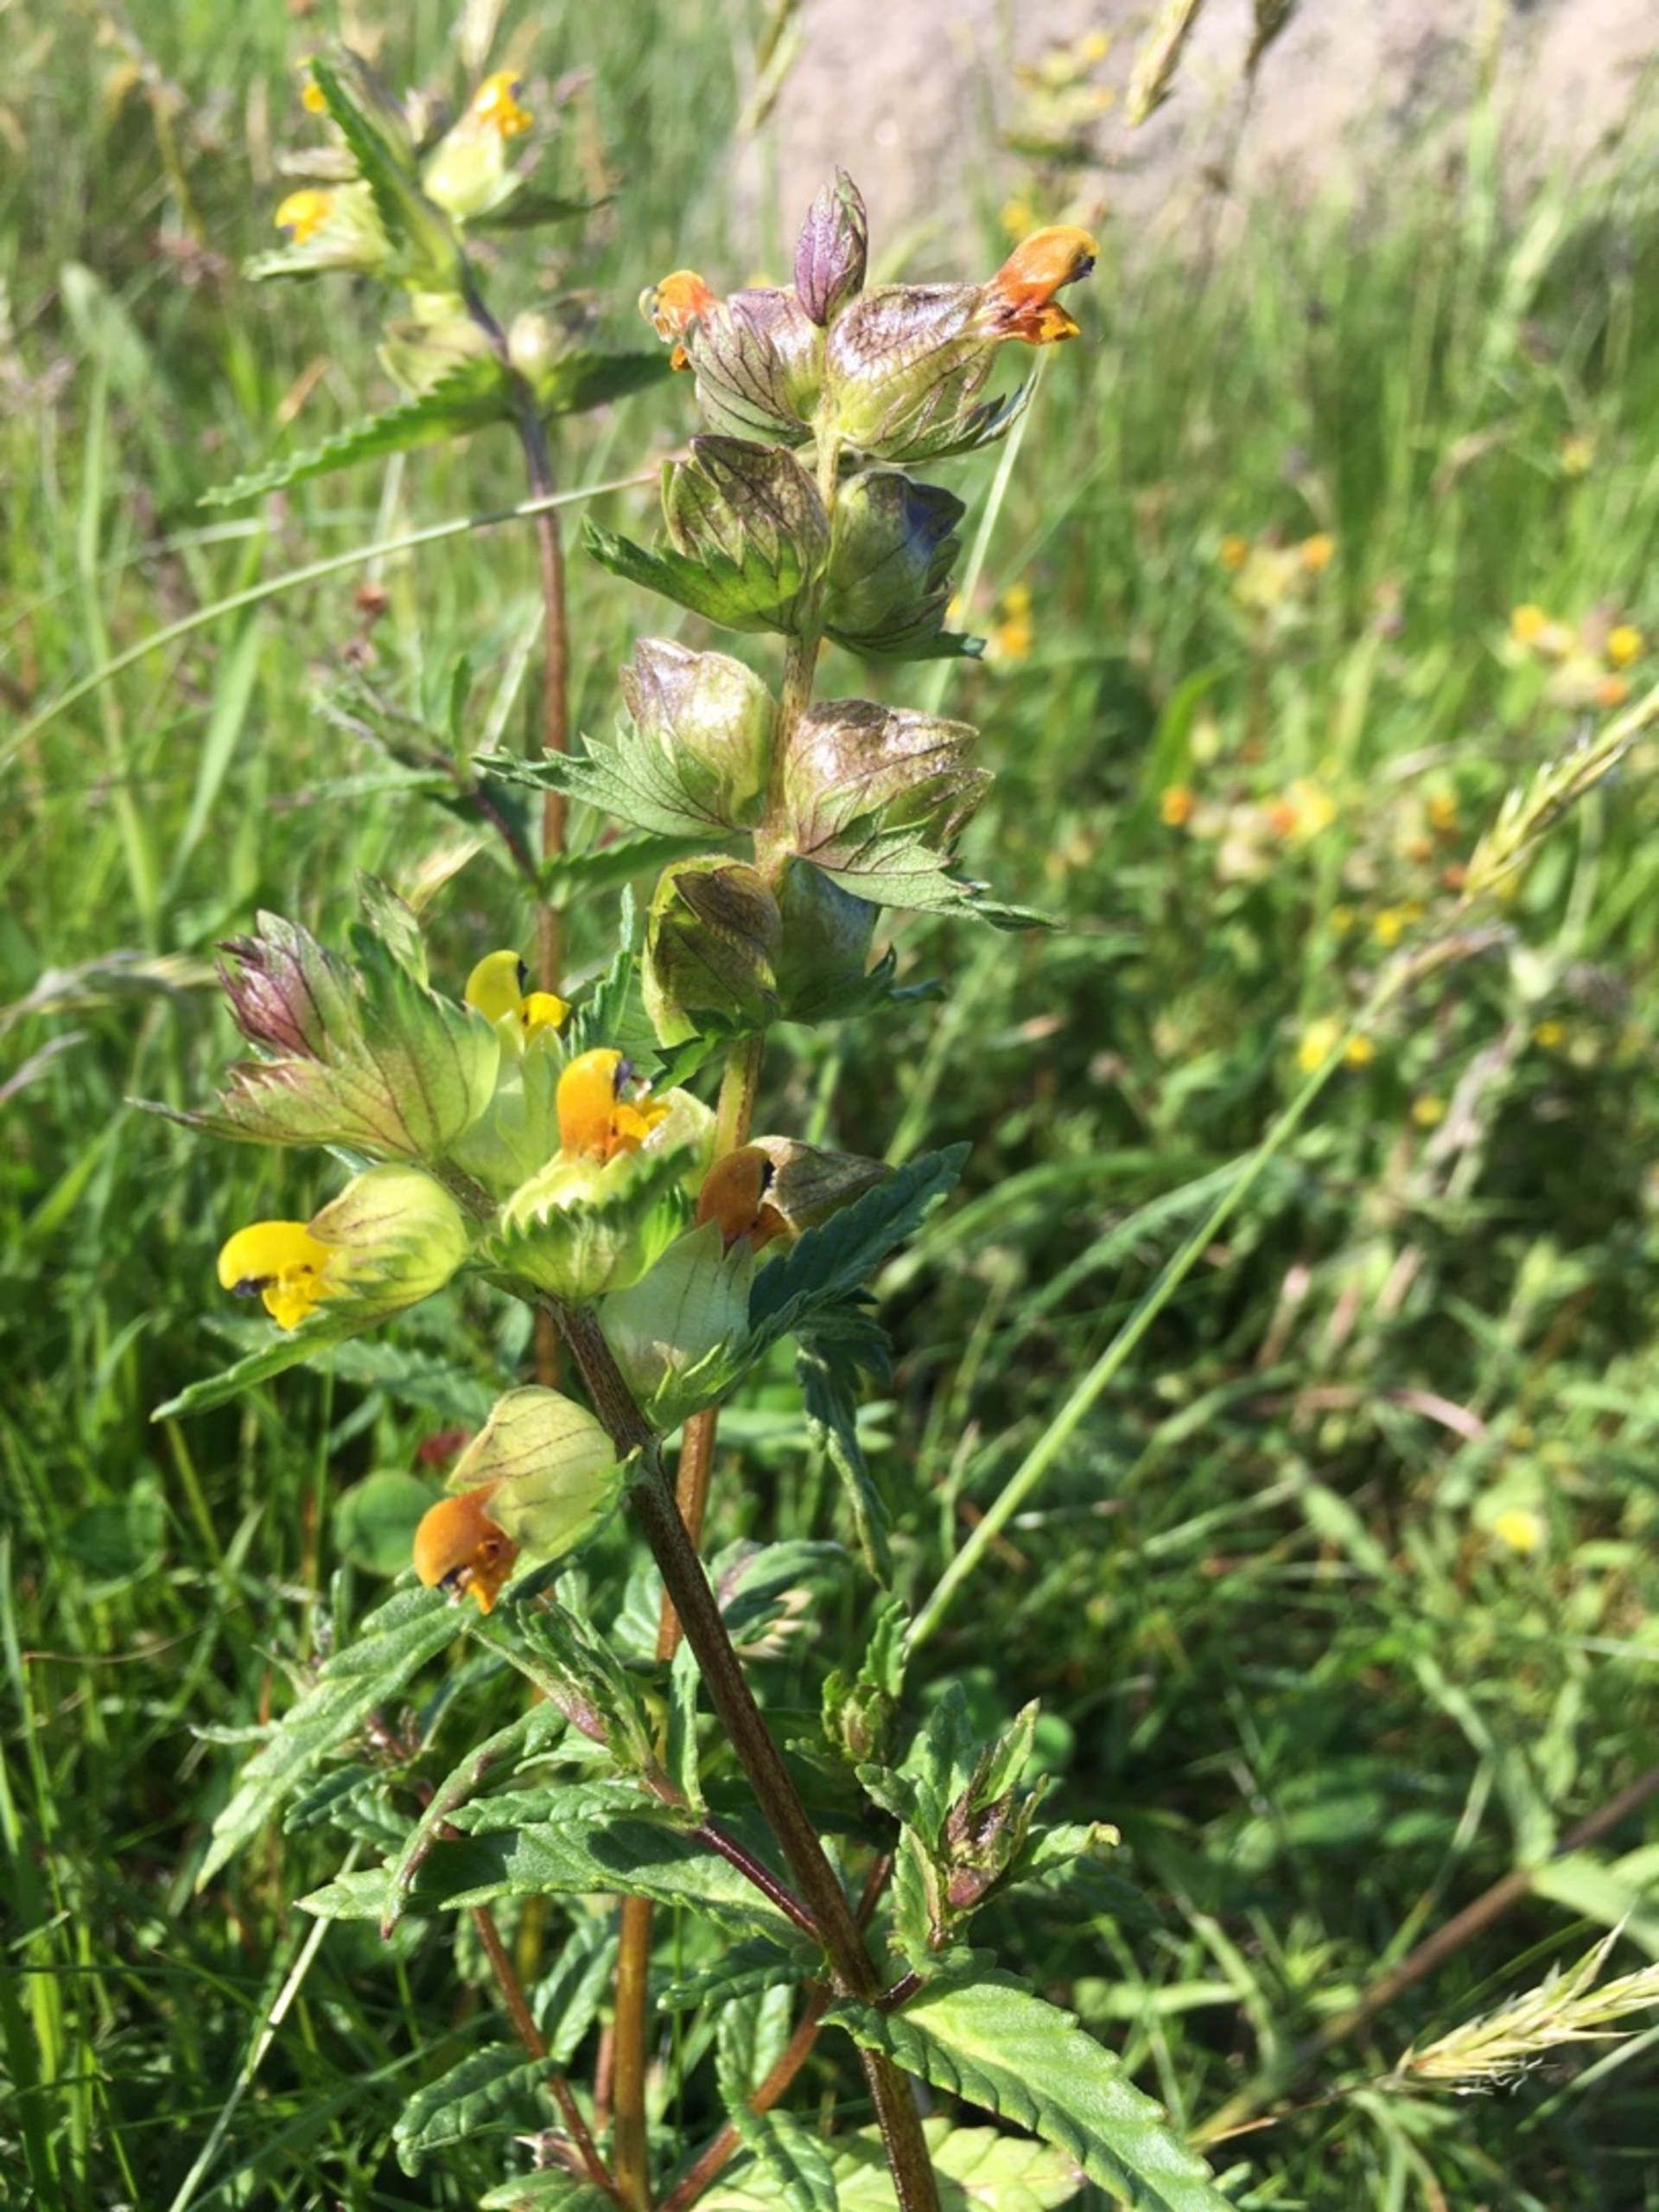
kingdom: Plantae
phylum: Tracheophyta
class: Magnoliopsida
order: Lamiales
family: Orobanchaceae
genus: Rhinanthus
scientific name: Rhinanthus
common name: Stor skjaller
